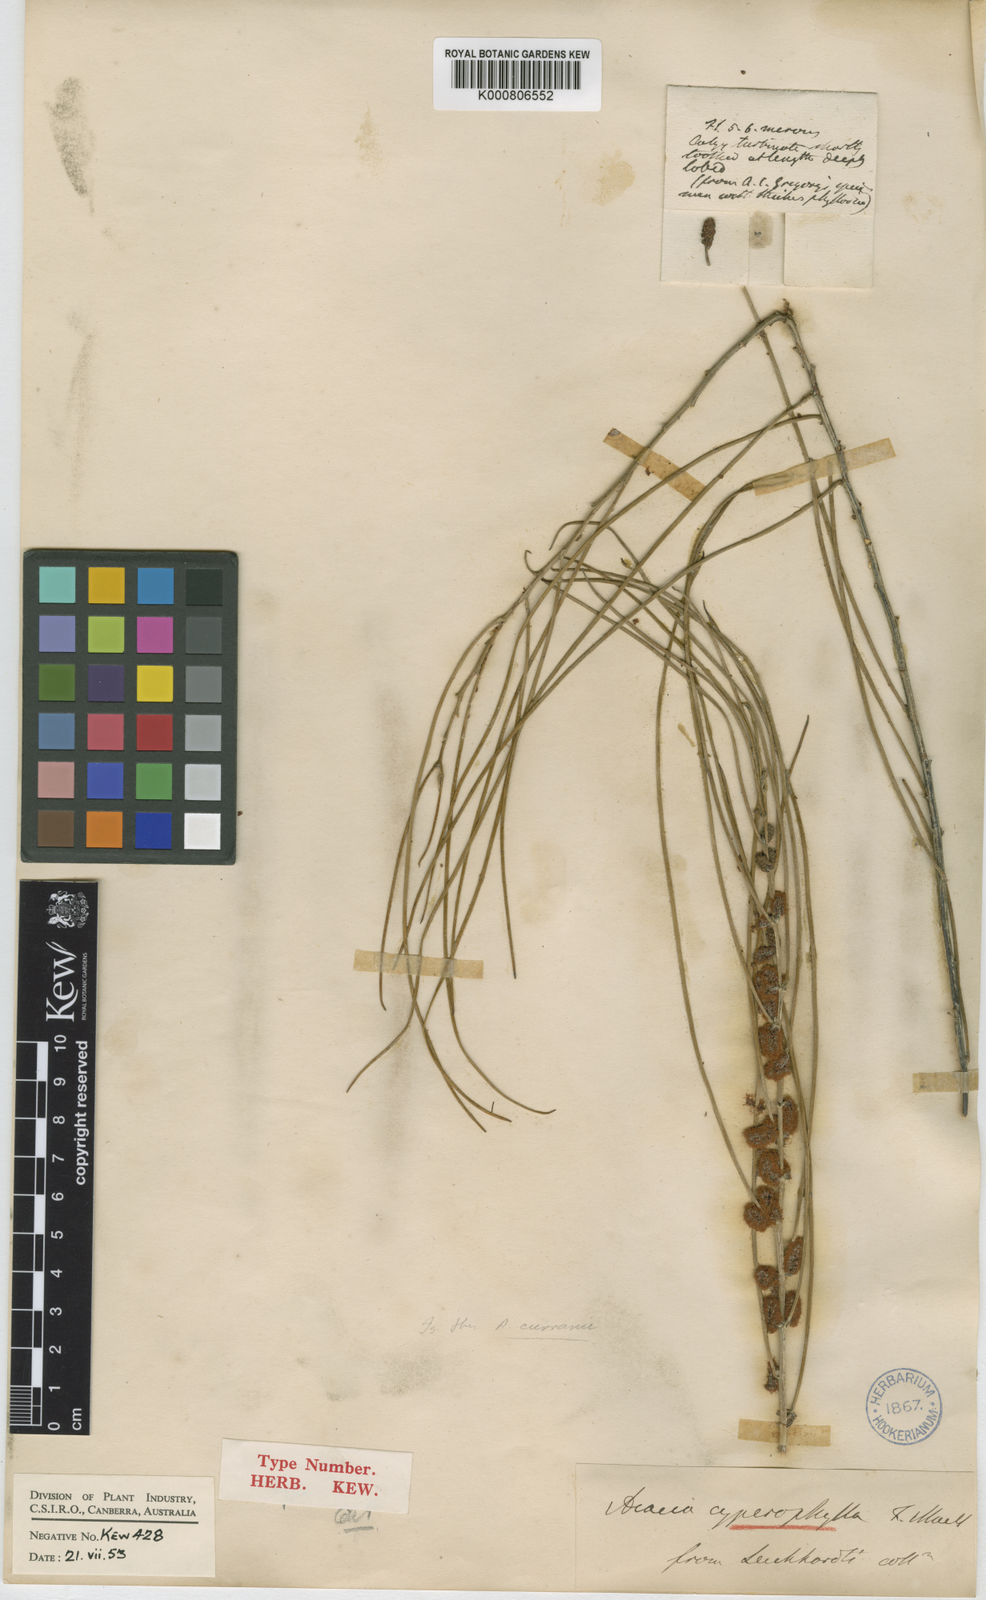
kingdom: Plantae
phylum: Tracheophyta
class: Magnoliopsida
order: Fabales
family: Fabaceae
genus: Acacia
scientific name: Acacia
